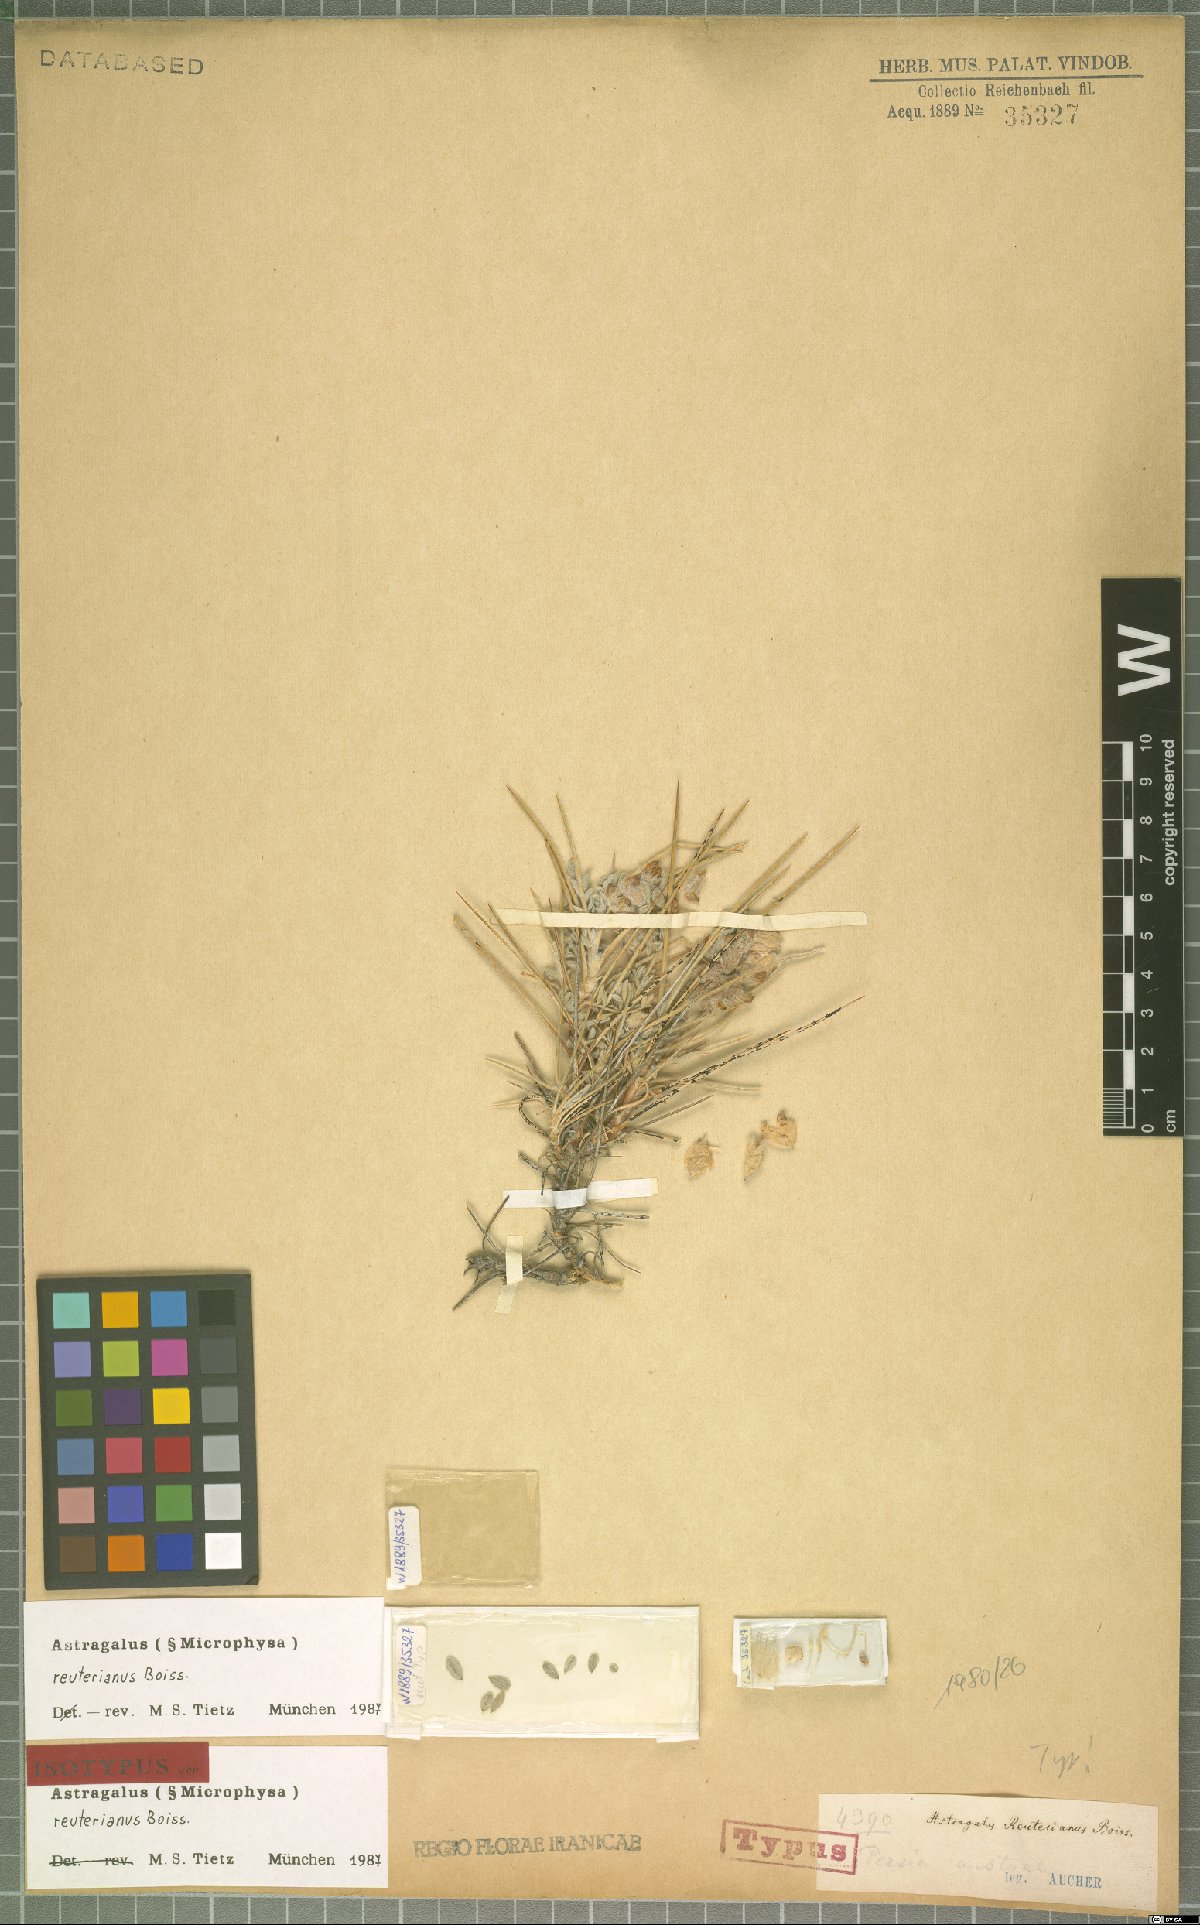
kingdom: Plantae
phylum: Tracheophyta
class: Magnoliopsida
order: Fabales
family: Fabaceae
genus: Astragalus
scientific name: Astragalus reuterianus
